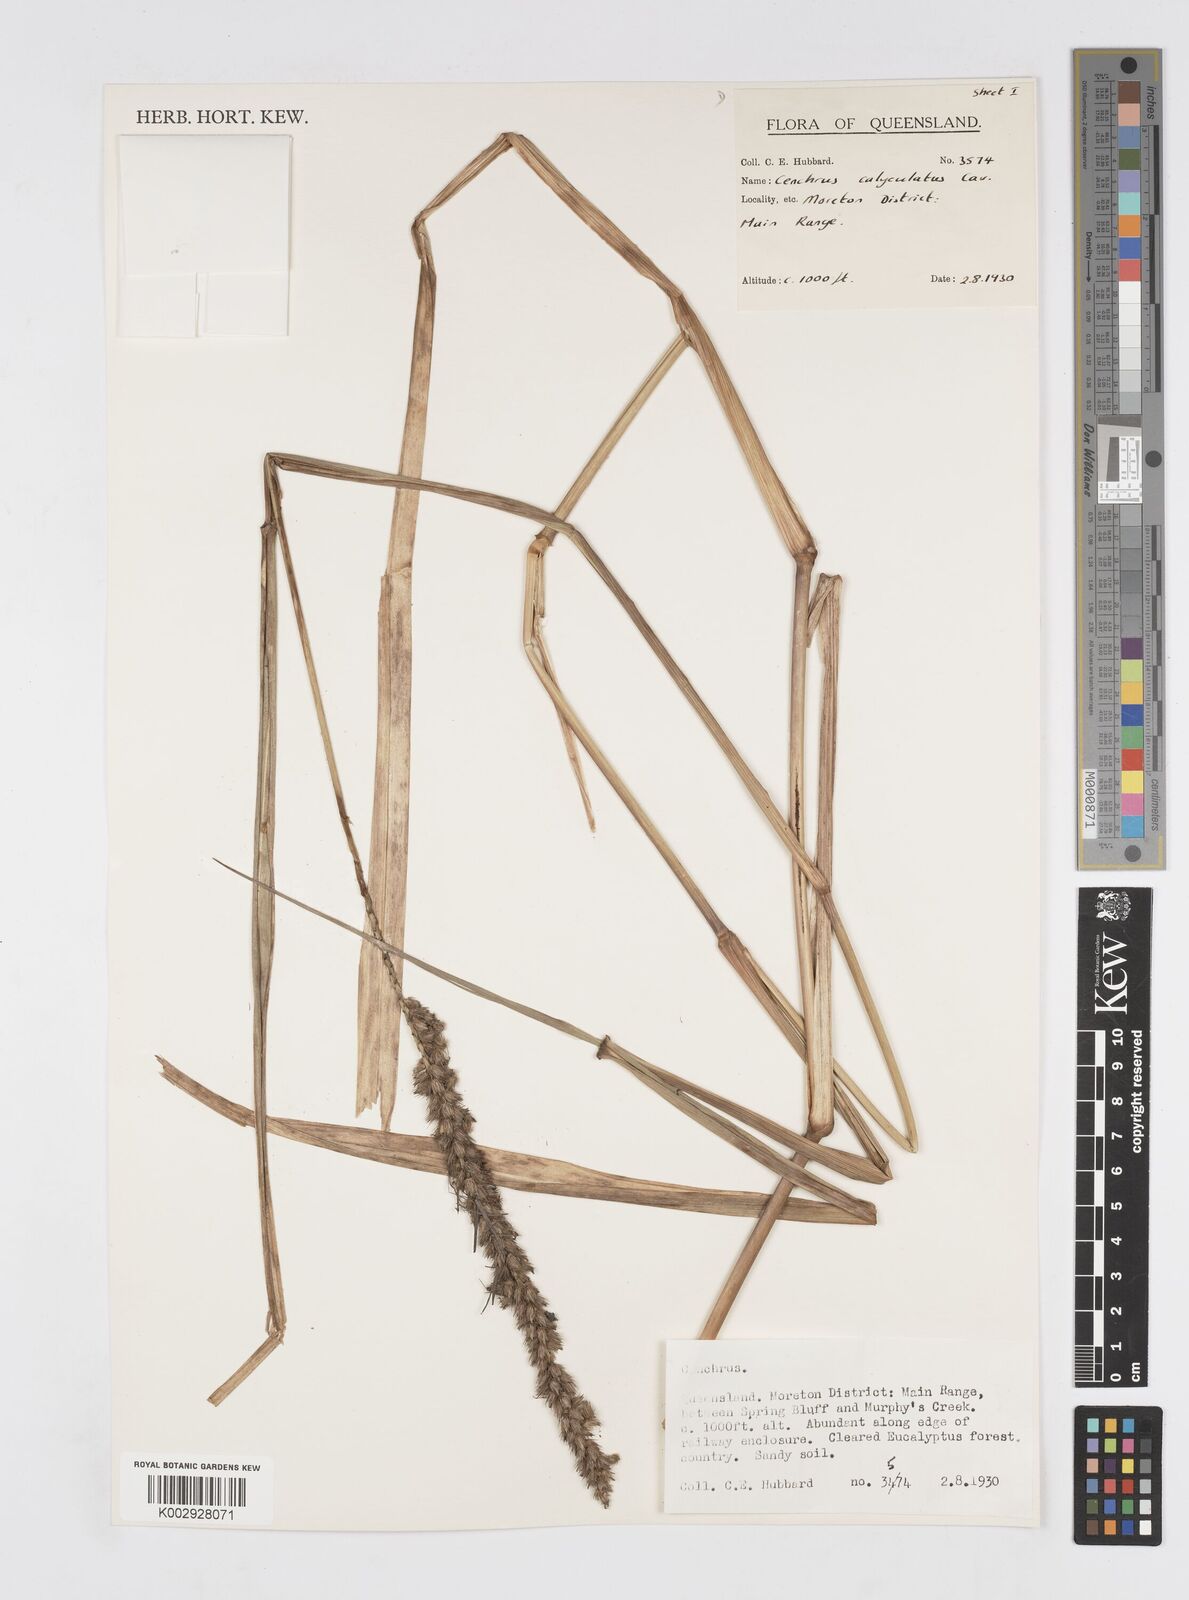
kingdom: Plantae
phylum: Tracheophyta
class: Liliopsida
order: Poales
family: Poaceae
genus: Cenchrus
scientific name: Cenchrus caliculatus
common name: Large bur grass
